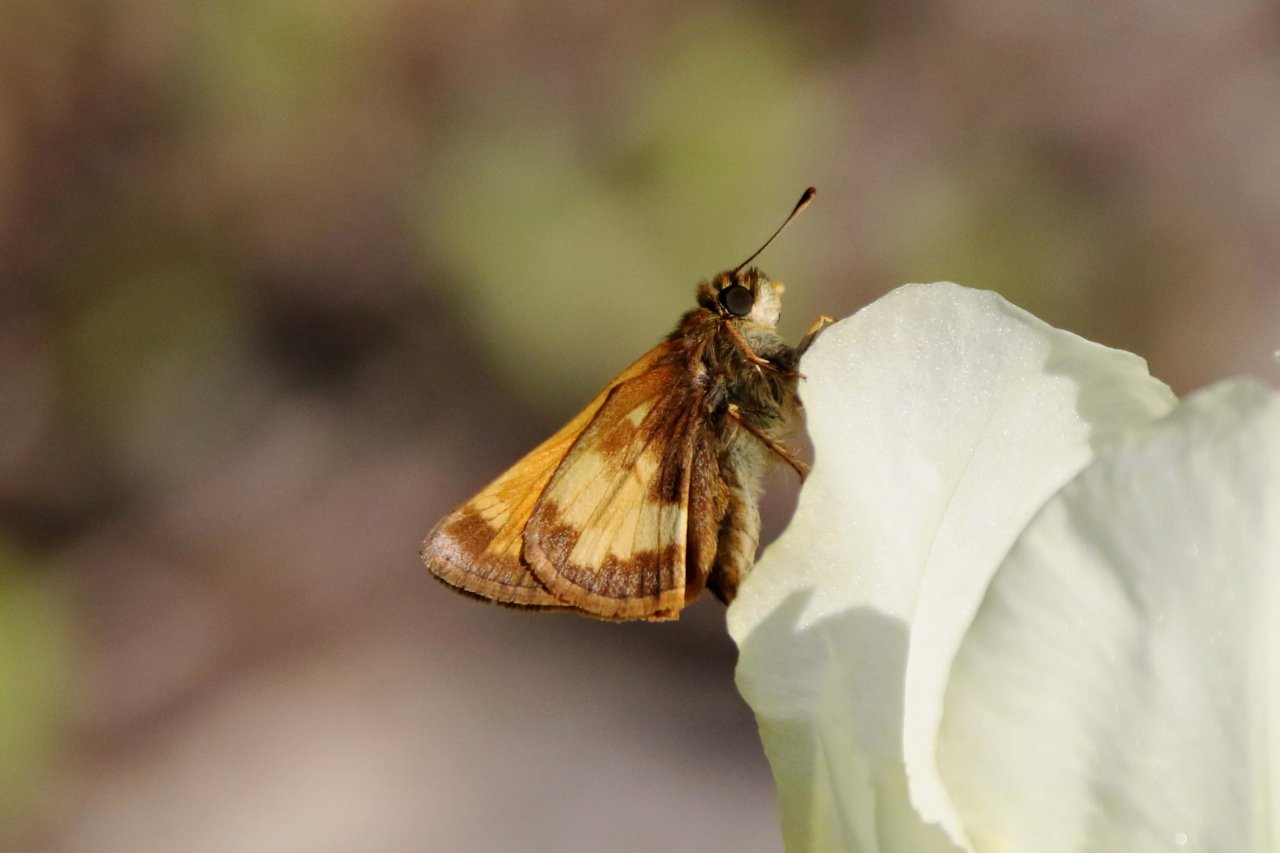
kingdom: Animalia
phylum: Arthropoda
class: Insecta
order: Lepidoptera
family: Hesperiidae
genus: Lon
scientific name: Lon hobomok
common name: Hobomok Skipper
